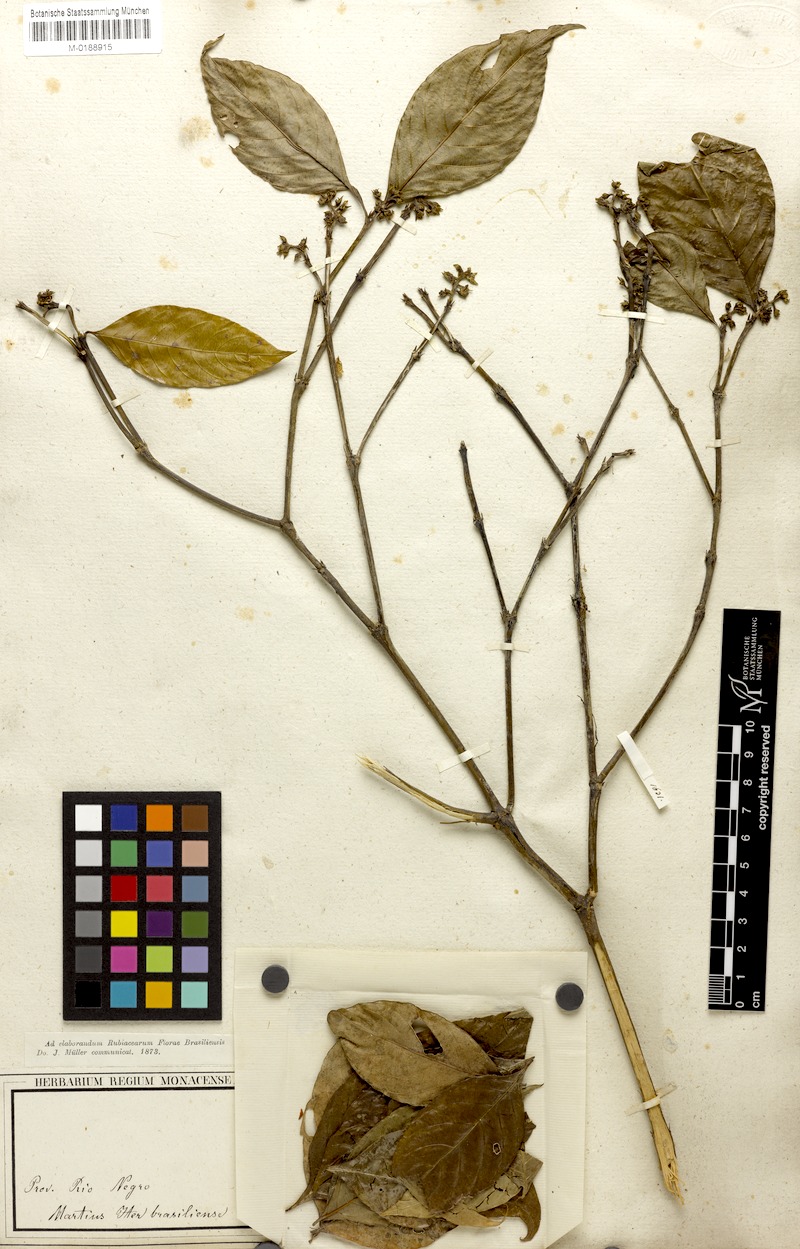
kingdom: Plantae
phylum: Tracheophyta
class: Magnoliopsida
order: Gentianales
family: Rubiaceae
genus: Palicourea
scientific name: Palicourea gracilenta
